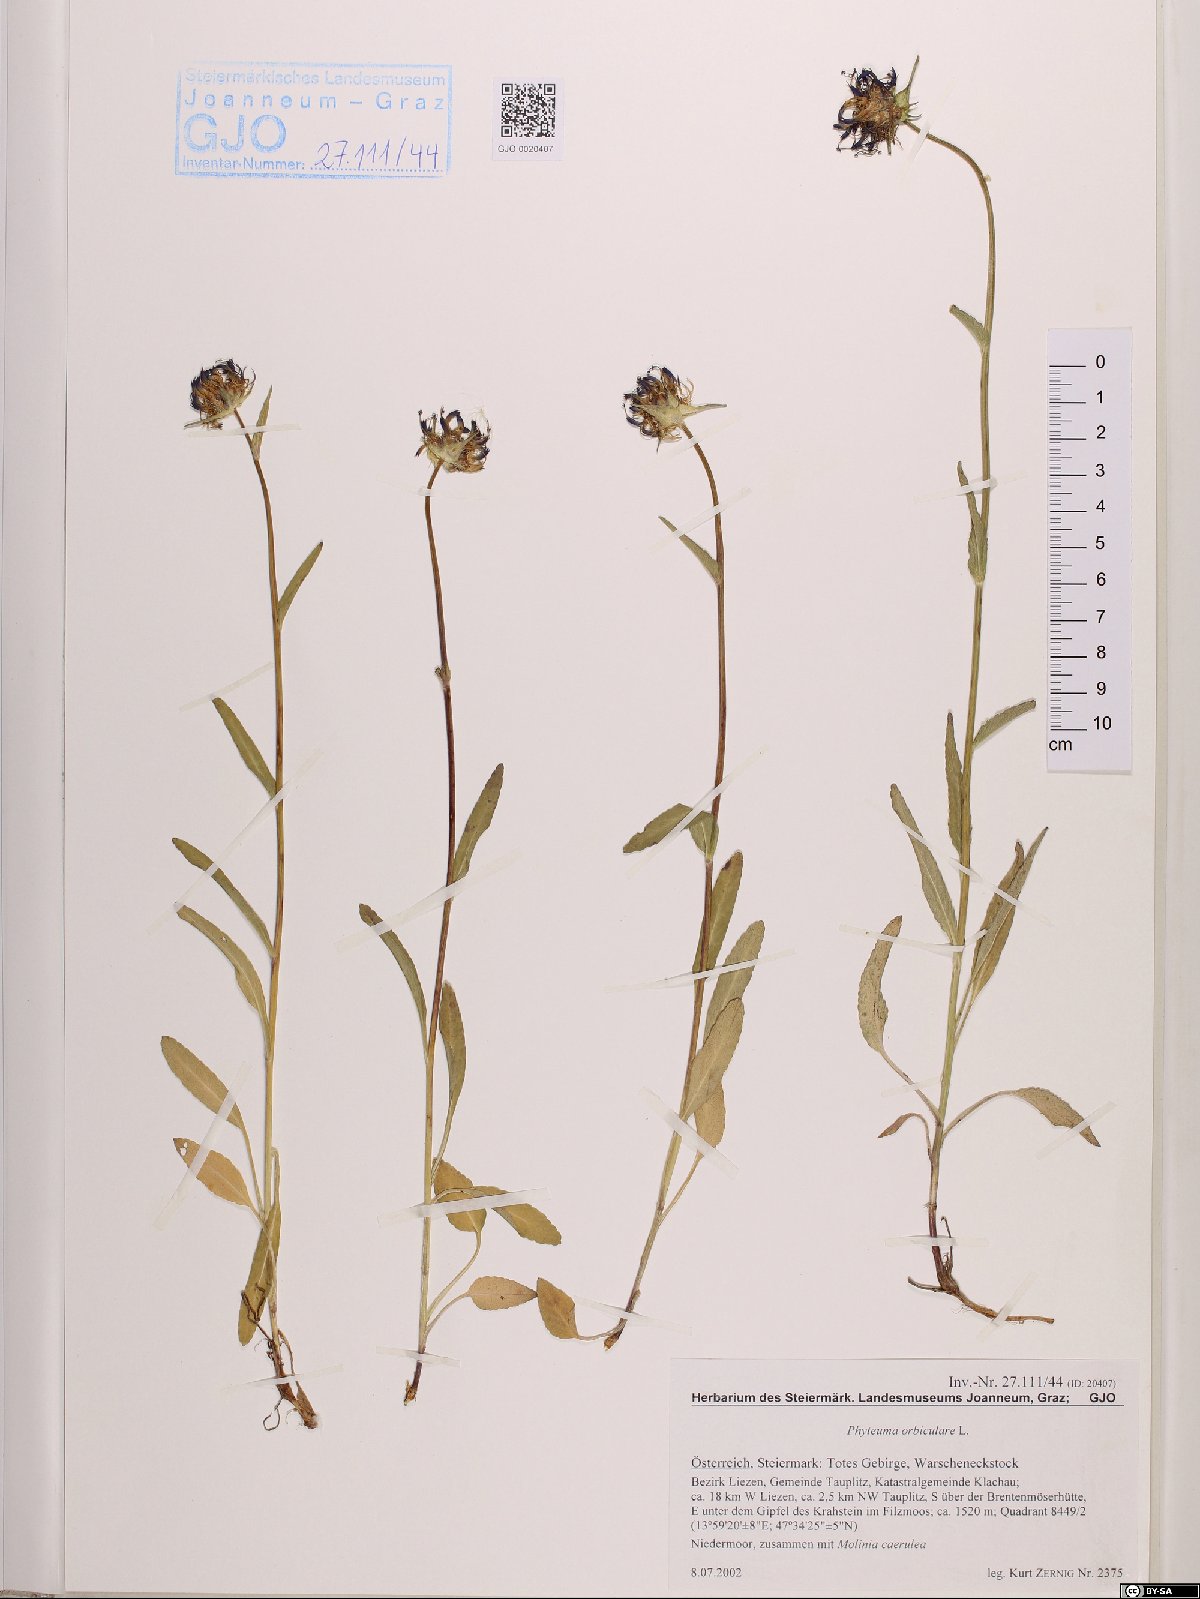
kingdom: Plantae
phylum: Tracheophyta
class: Magnoliopsida
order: Asterales
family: Campanulaceae
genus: Phyteuma
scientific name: Phyteuma orbiculare
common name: Round-headed rampion
